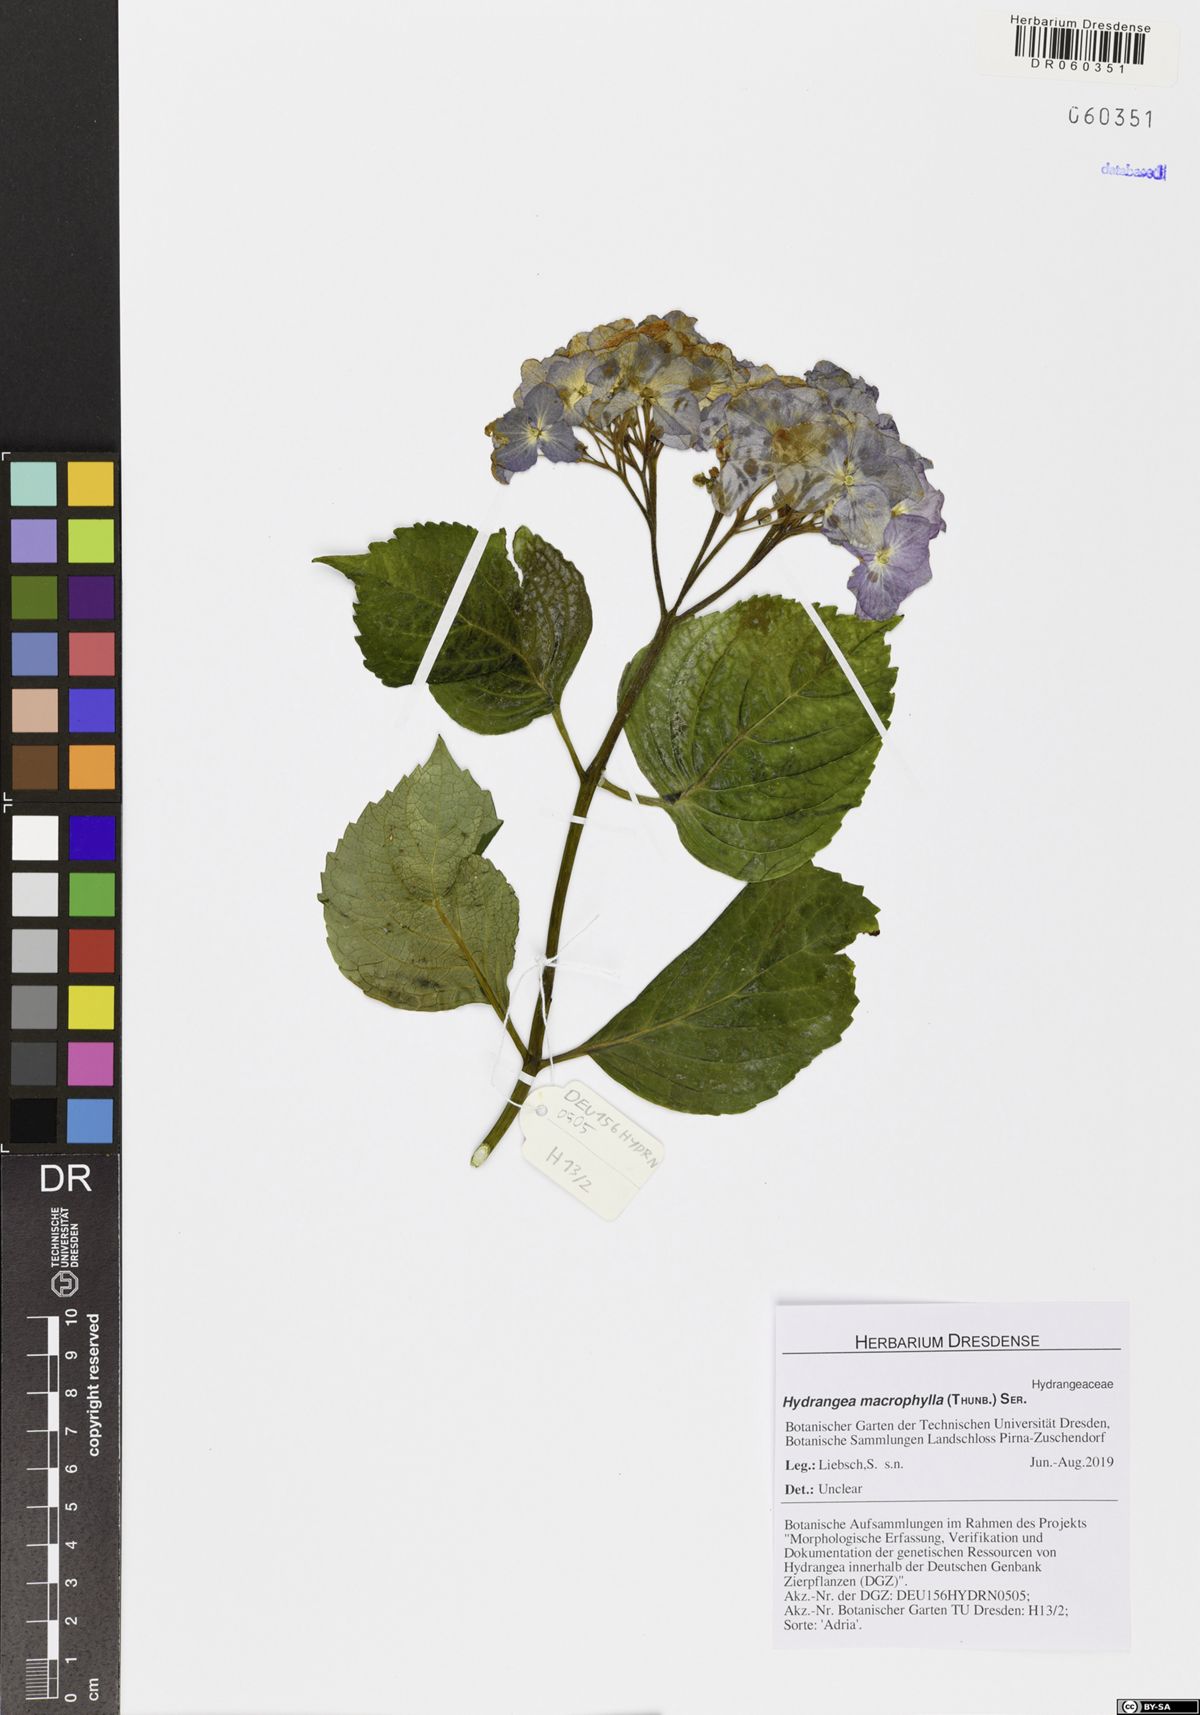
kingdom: Plantae
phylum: Tracheophyta
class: Magnoliopsida
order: Cornales
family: Hydrangeaceae
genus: Hydrangea
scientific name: Hydrangea macrophylla
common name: Hydrangea
